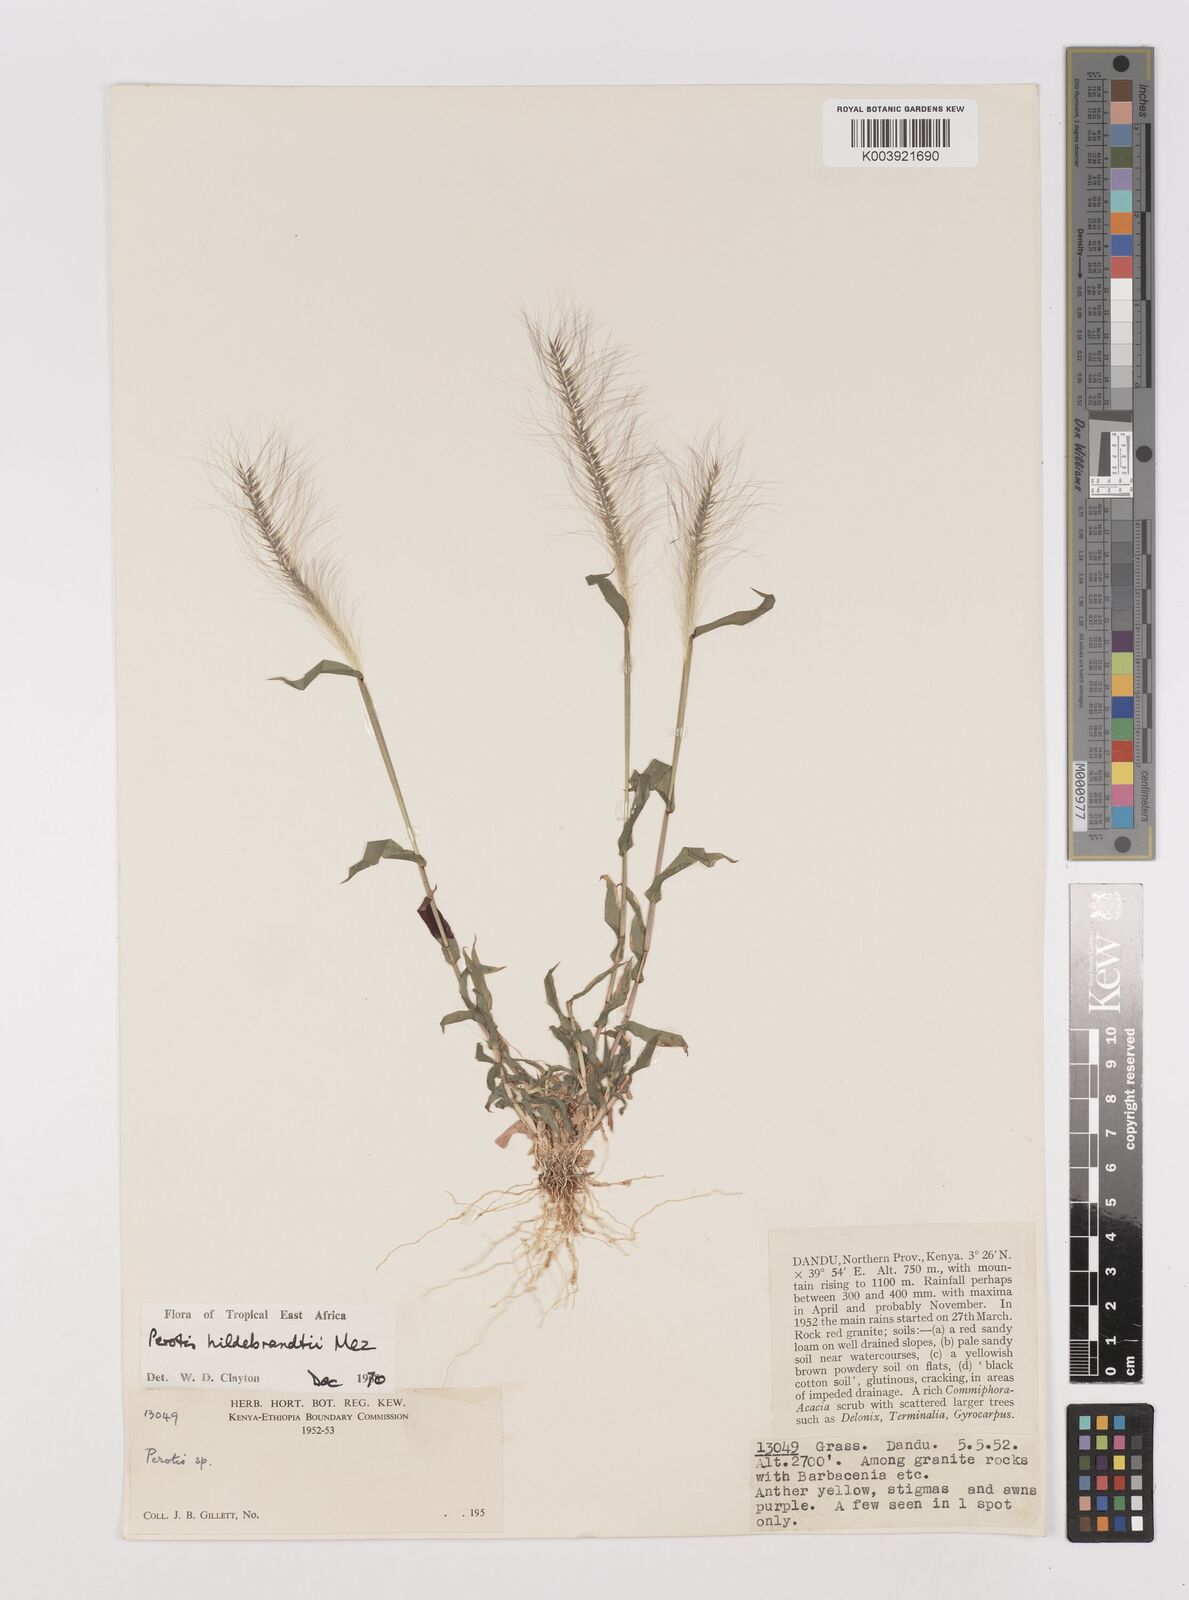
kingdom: Plantae
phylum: Tracheophyta
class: Liliopsida
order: Poales
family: Poaceae
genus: Perotis
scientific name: Perotis hildebrandtii
